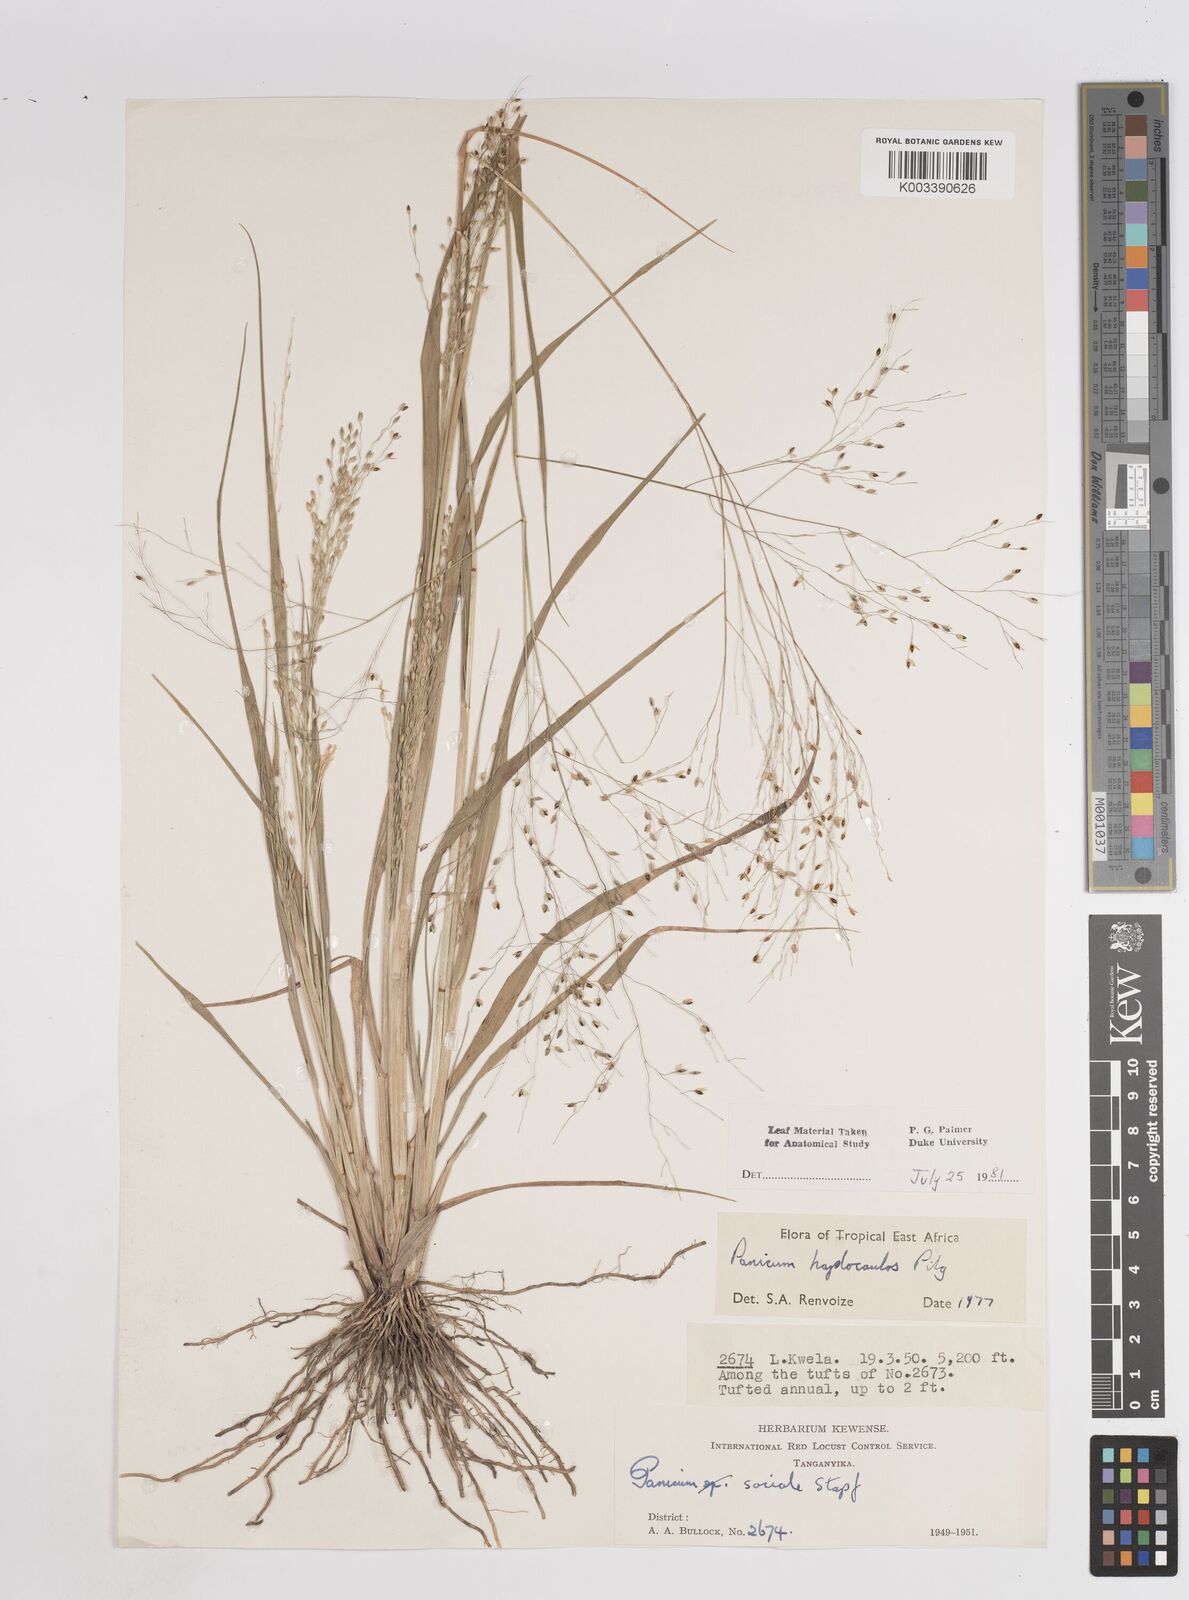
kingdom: Plantae
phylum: Tracheophyta
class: Liliopsida
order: Poales
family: Poaceae
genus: Panicum
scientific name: Panicum haplocaulos
